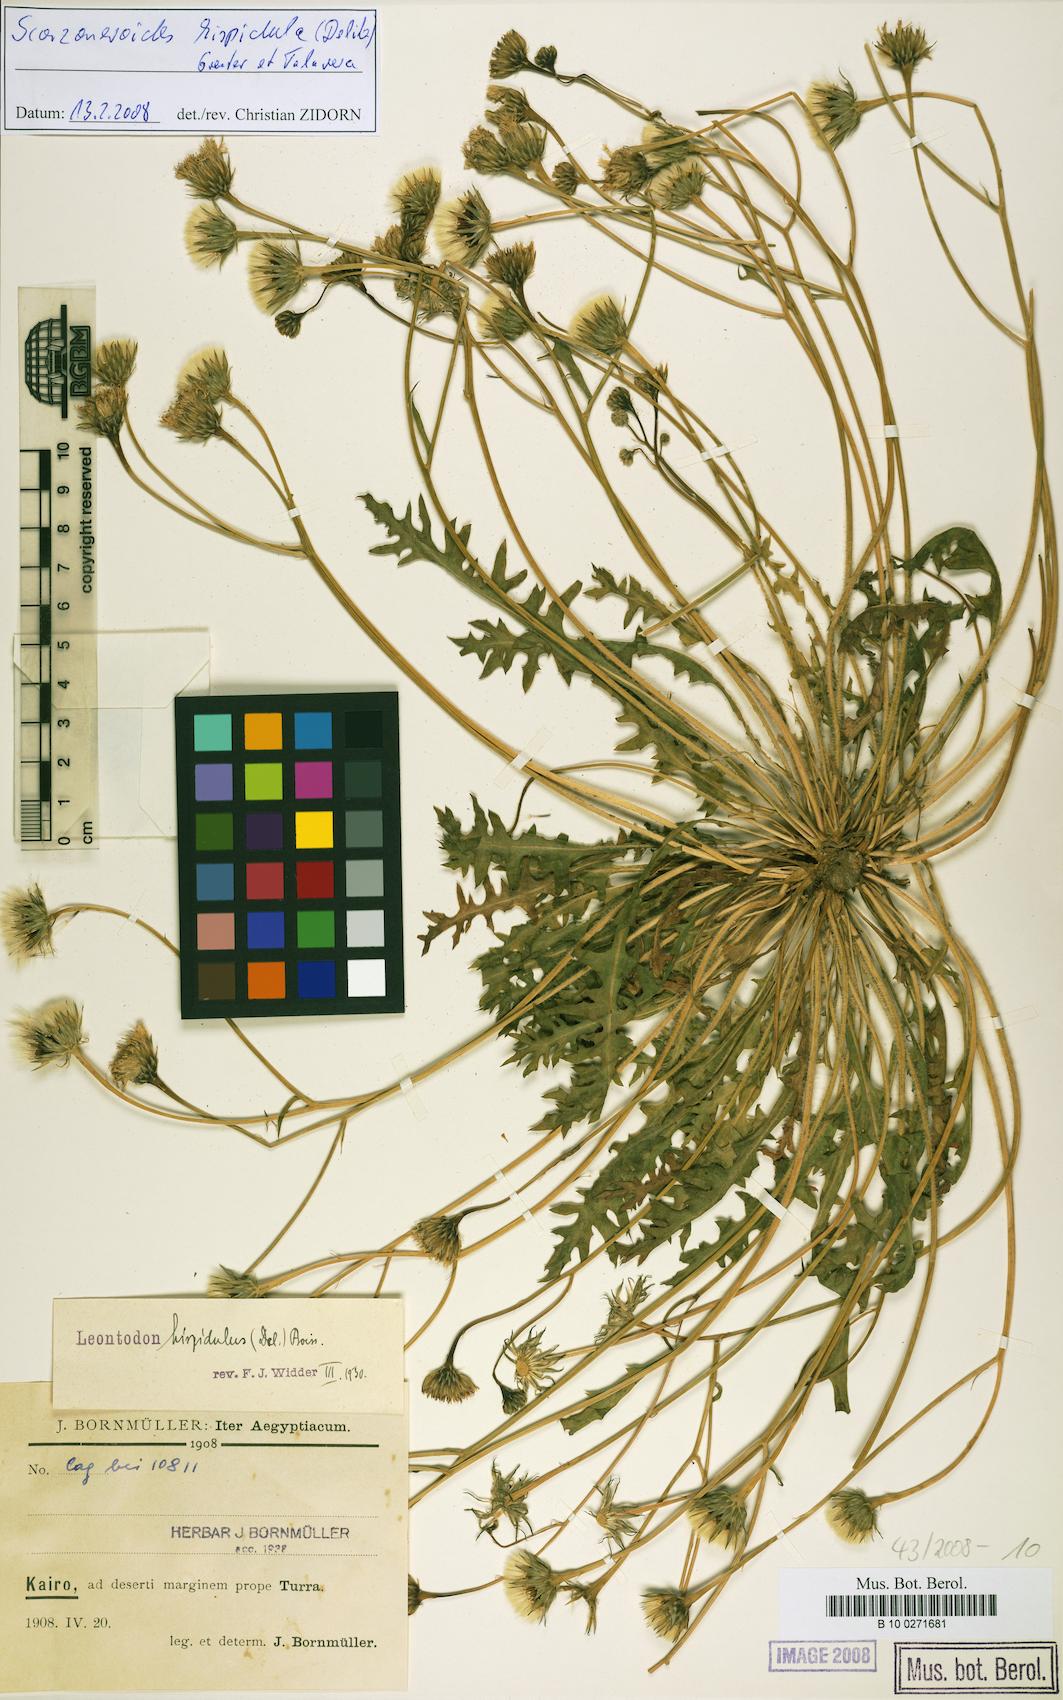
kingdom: Plantae
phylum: Tracheophyta
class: Magnoliopsida
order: Asterales
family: Asteraceae
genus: Scorzoneroides
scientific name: Scorzoneroides hispidula
